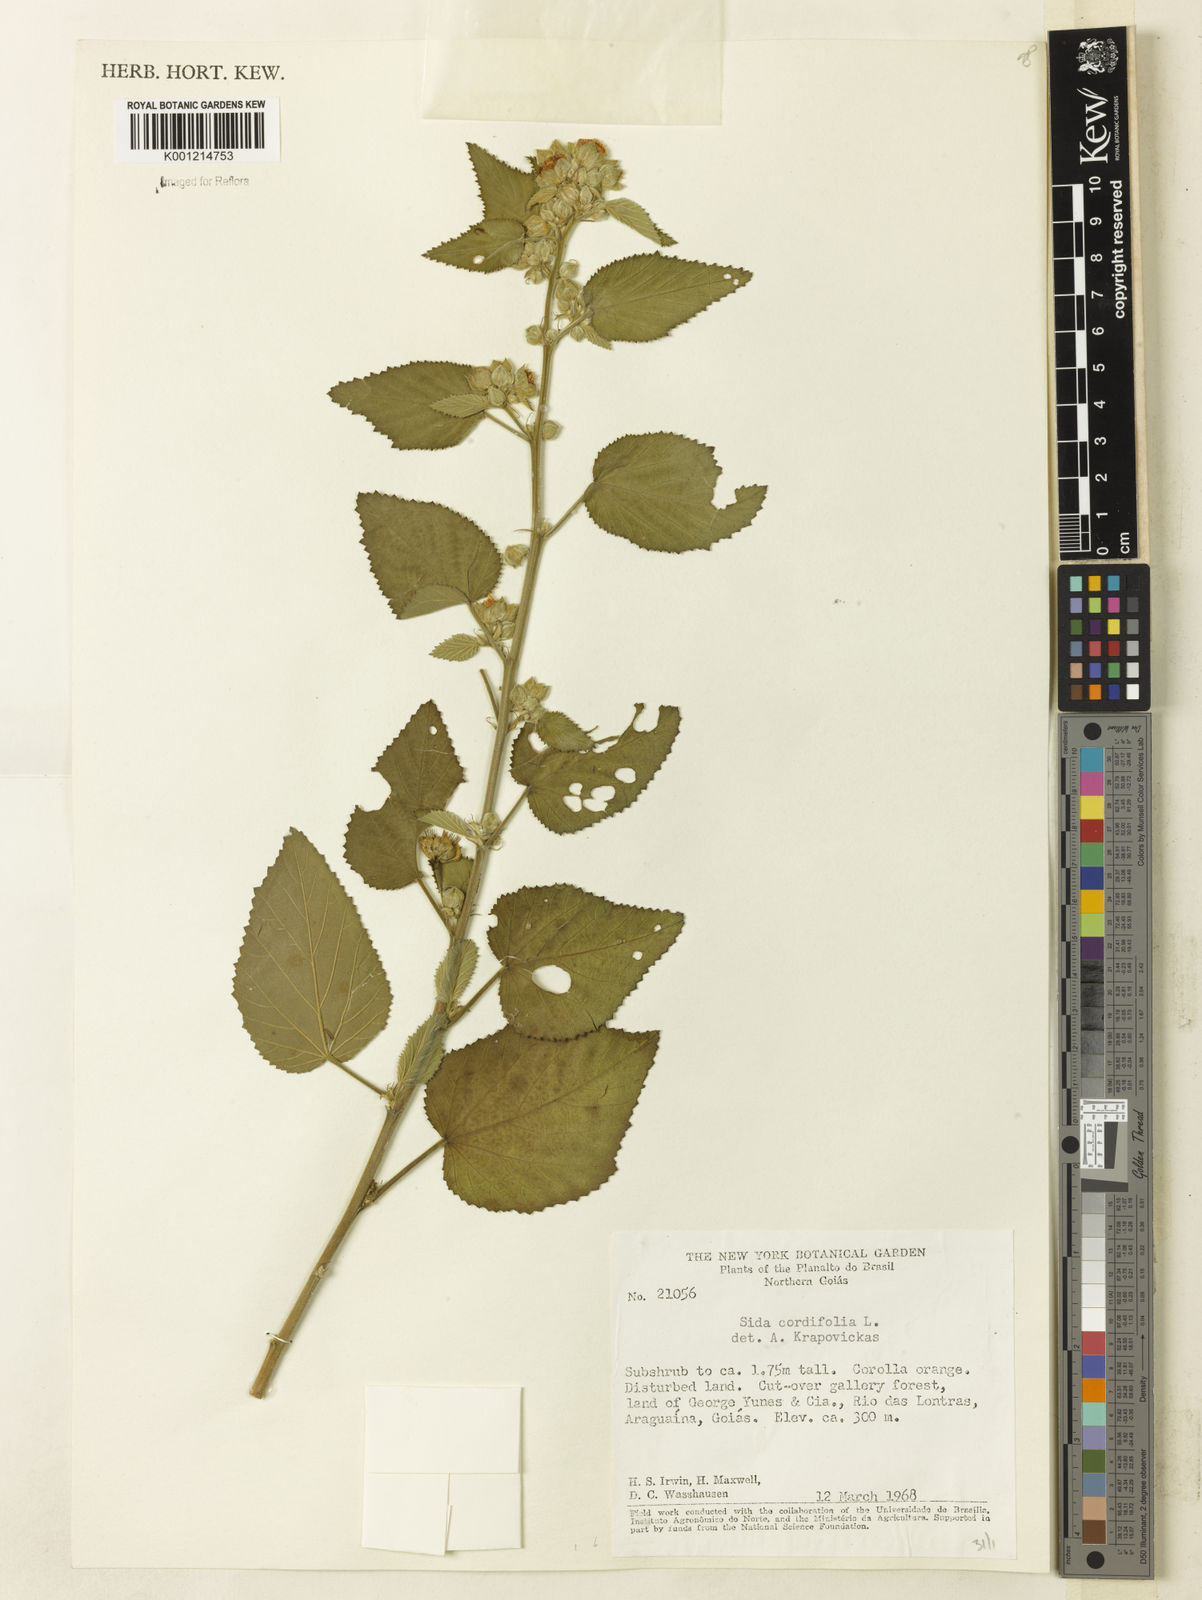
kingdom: Plantae
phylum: Tracheophyta
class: Magnoliopsida
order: Malvales
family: Malvaceae
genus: Sida
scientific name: Sida cordifolia
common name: Ilima
